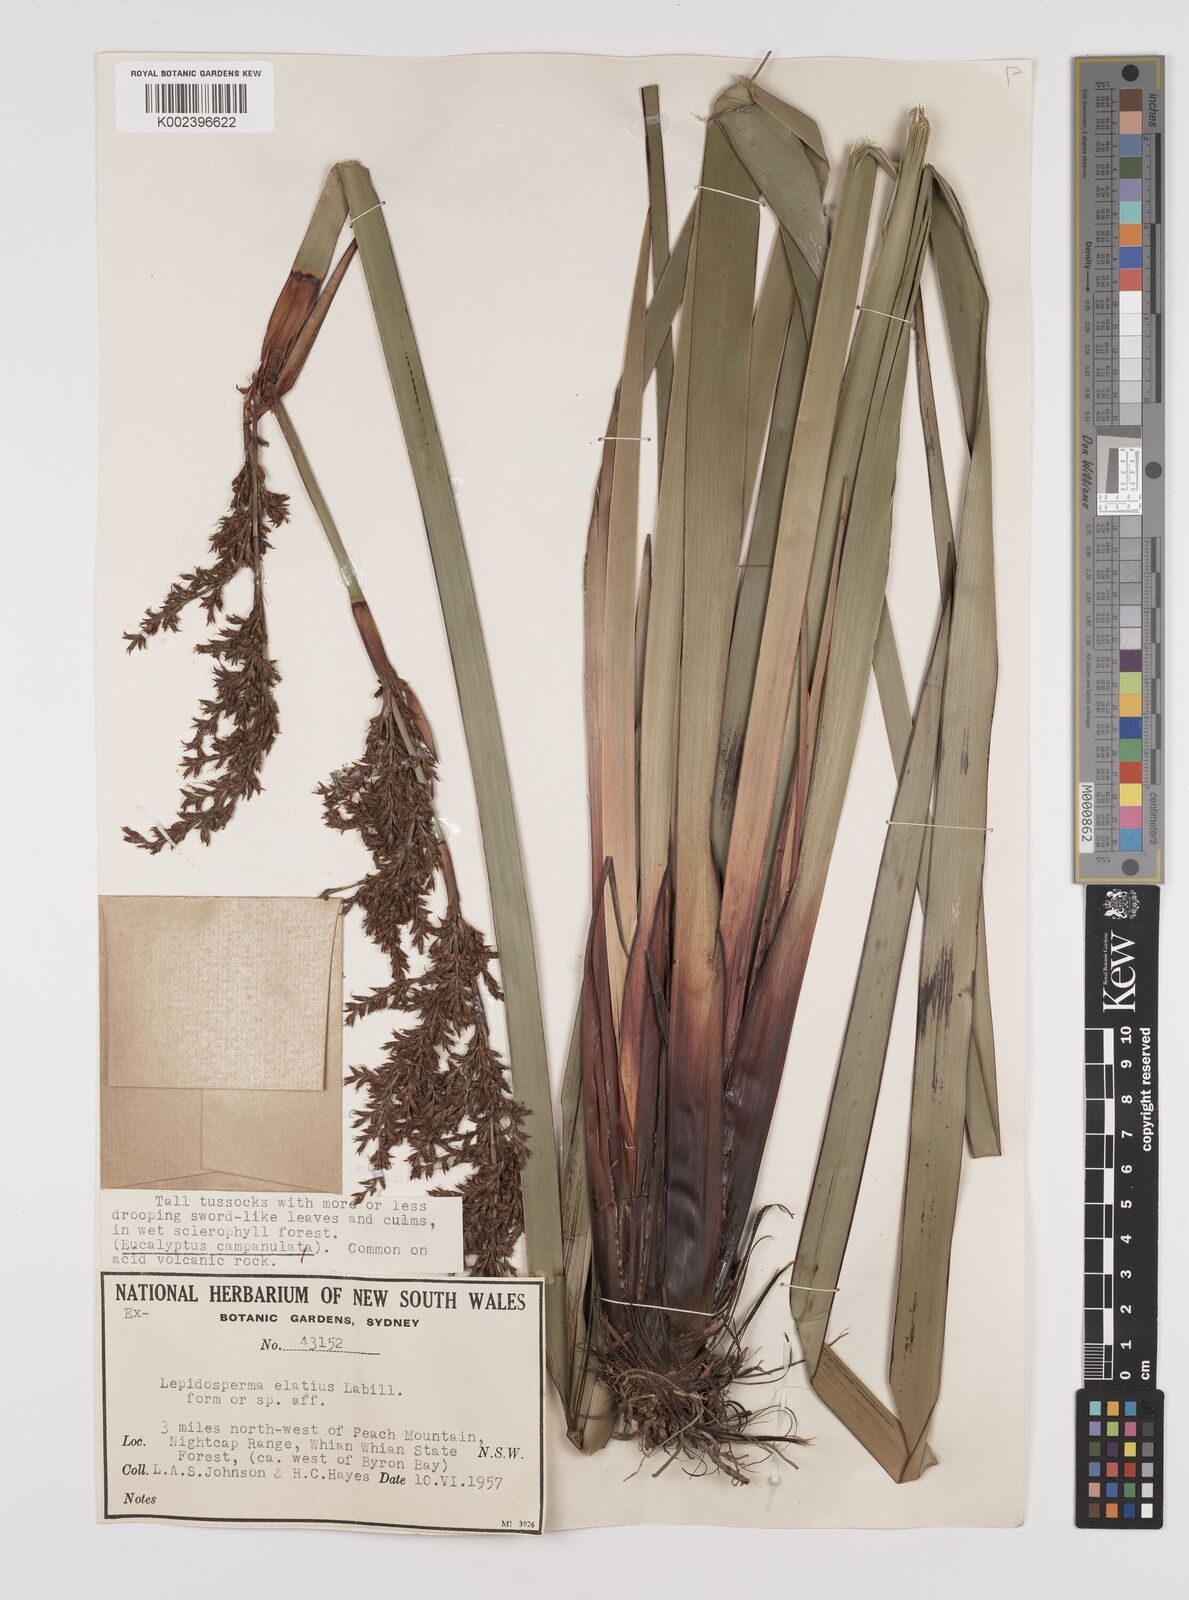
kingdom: Plantae
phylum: Tracheophyta
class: Liliopsida
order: Poales
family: Cyperaceae
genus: Lepidosperma
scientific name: Lepidosperma elatius
